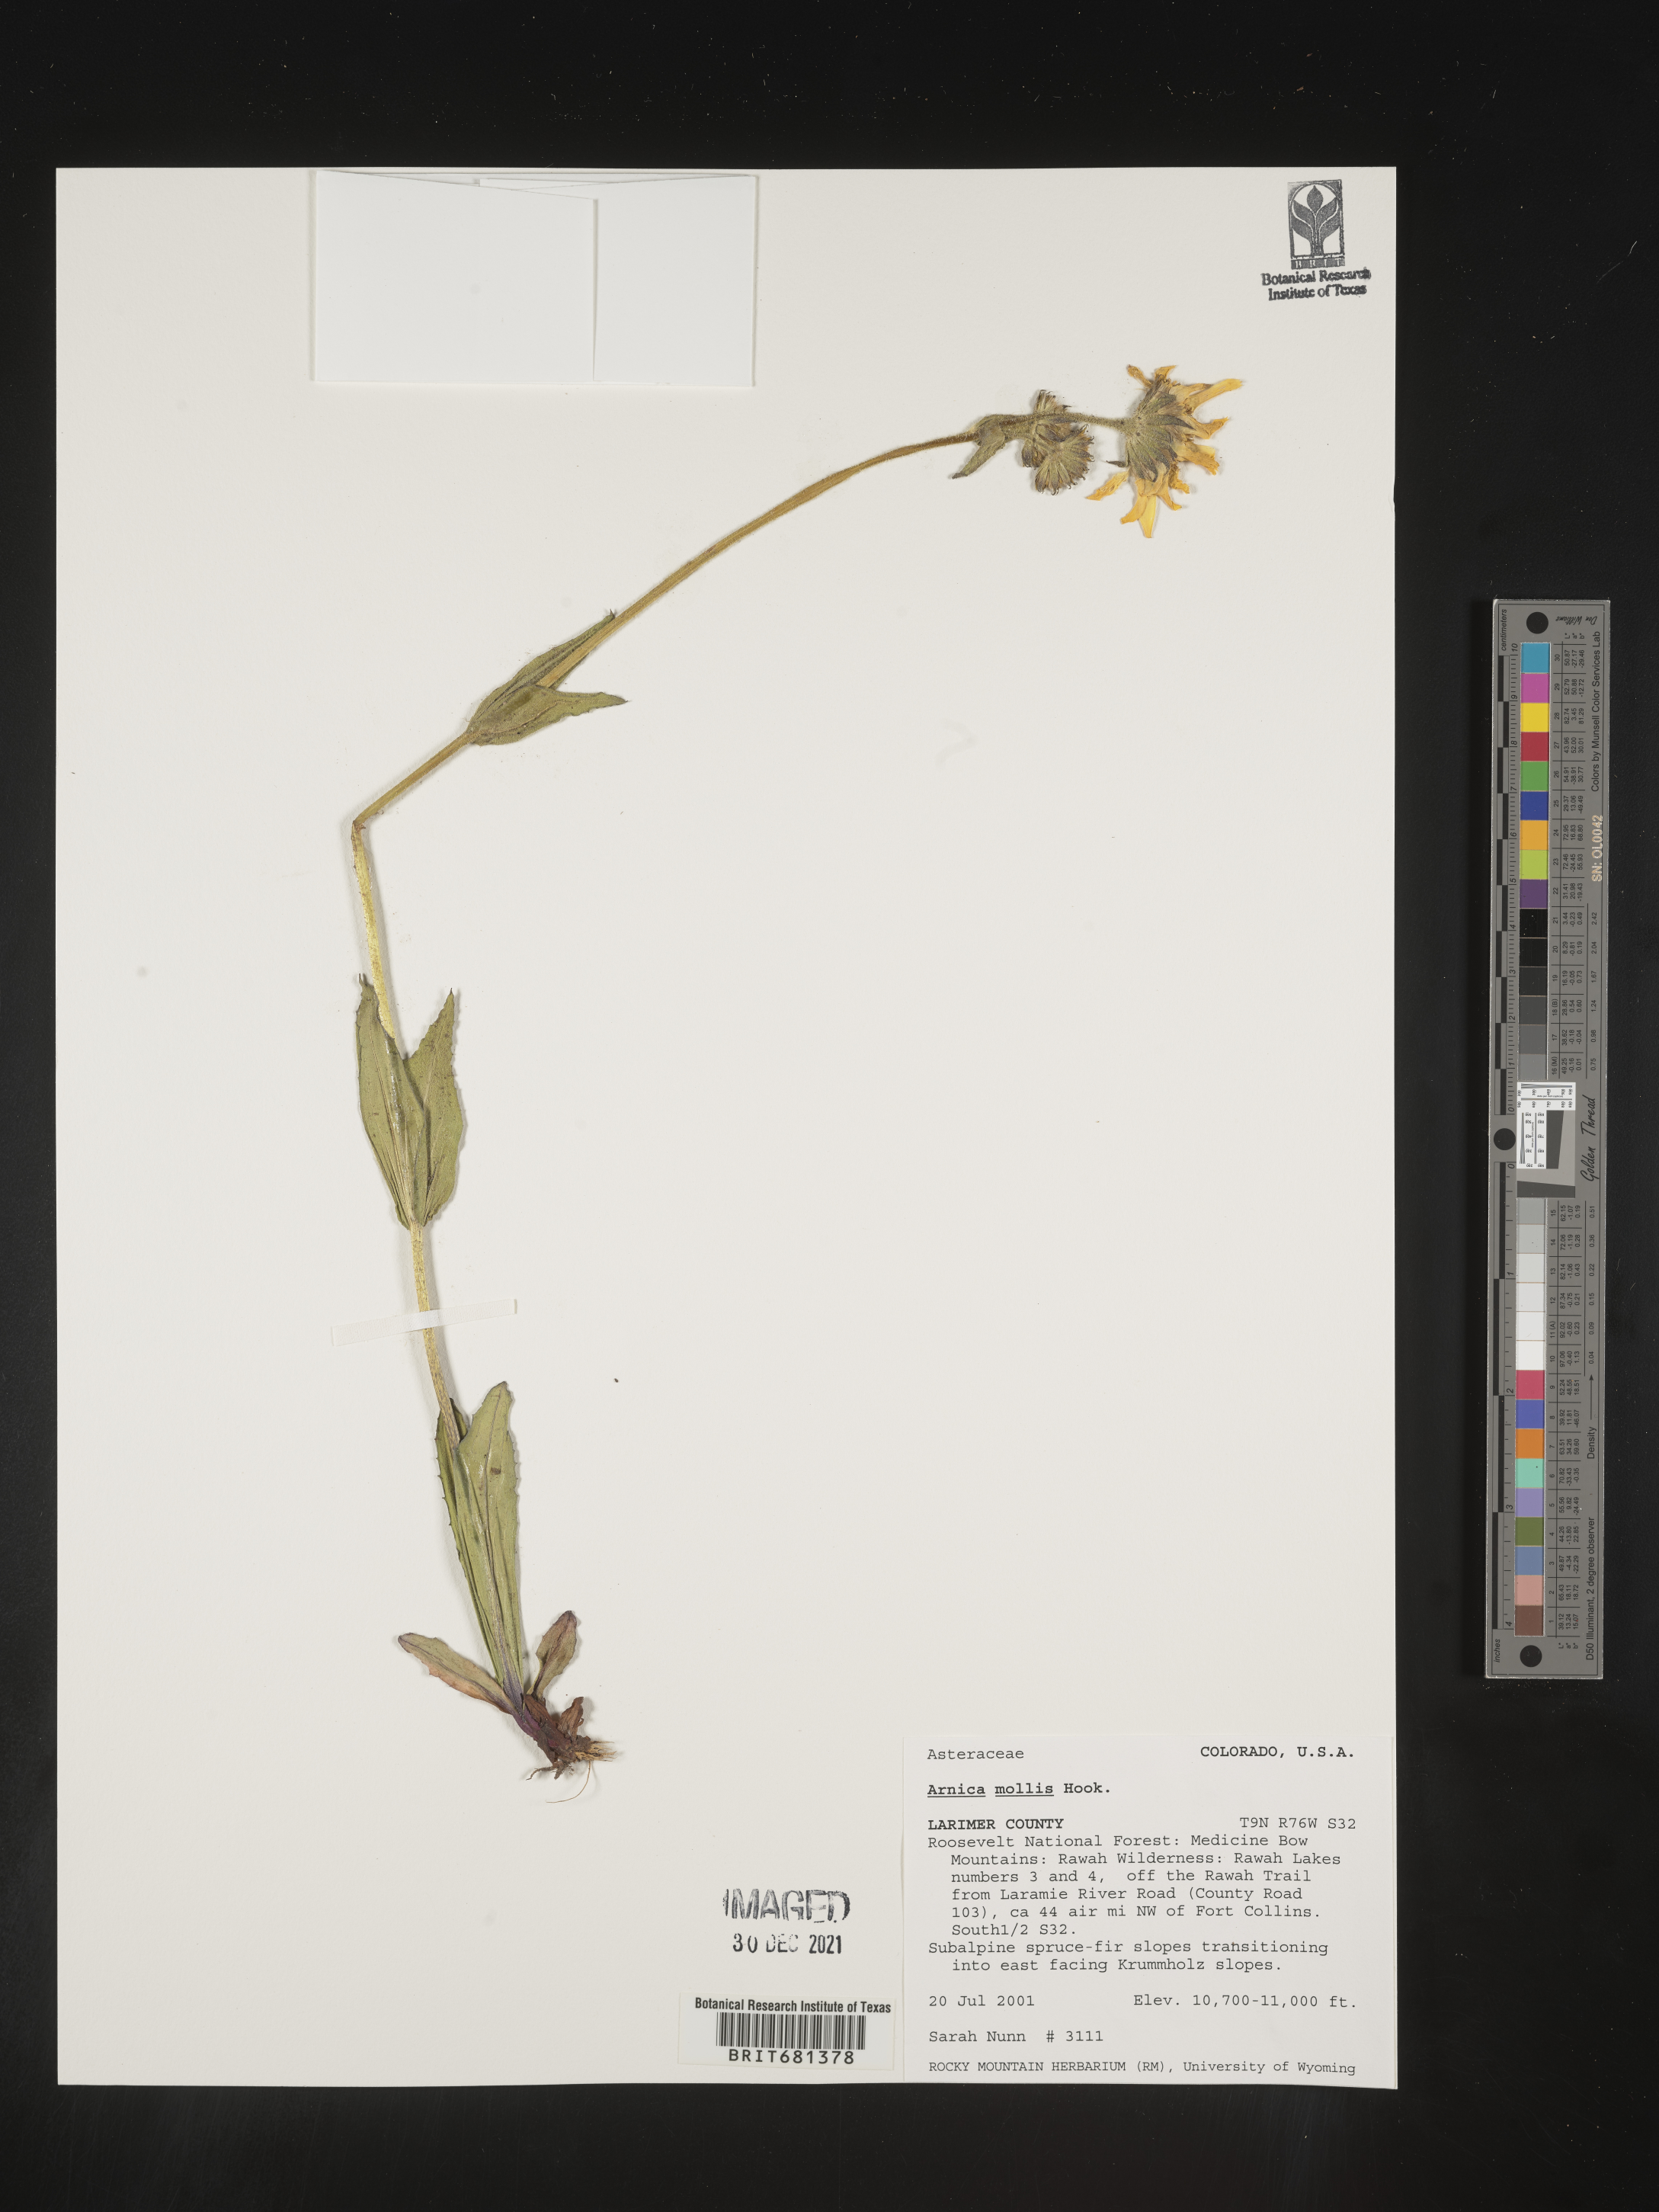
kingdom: Plantae
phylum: Tracheophyta
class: Magnoliopsida
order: Asterales
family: Asteraceae
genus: Arnica
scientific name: Arnica mollis
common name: Hairy arnica
